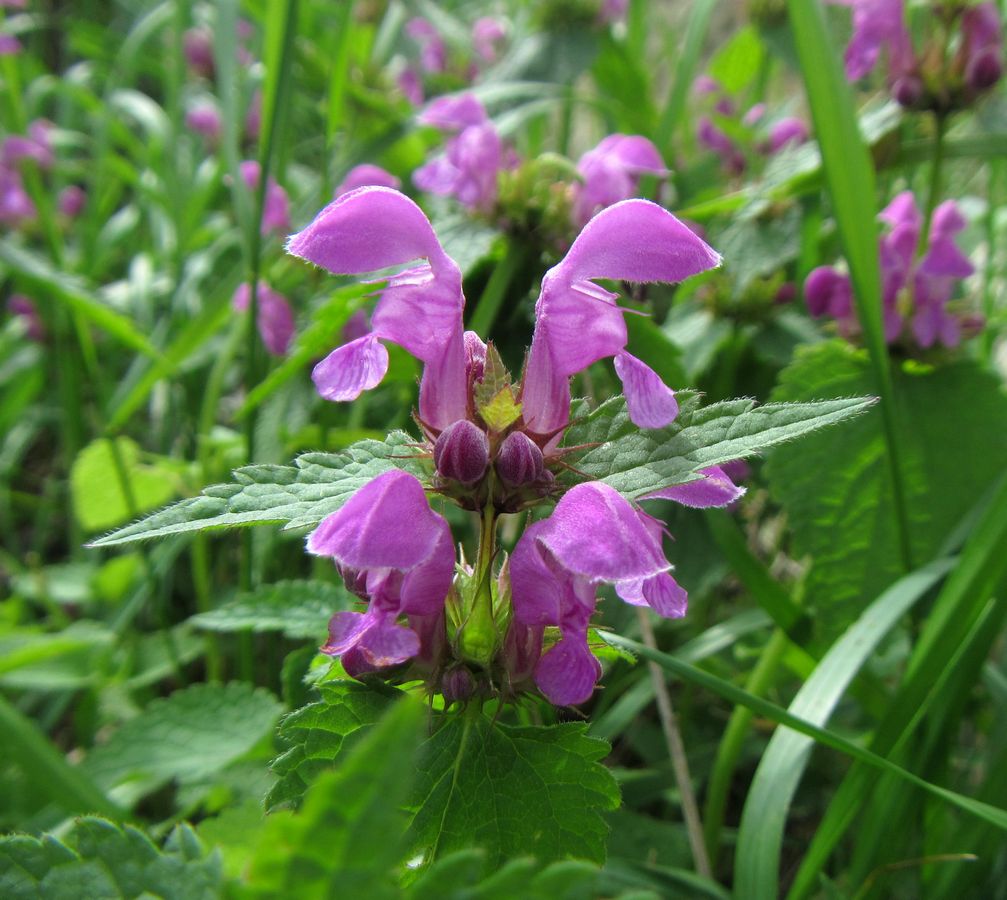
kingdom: Plantae
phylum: Tracheophyta
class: Magnoliopsida
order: Lamiales
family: Lamiaceae
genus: Lamium
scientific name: Lamium purpureum
